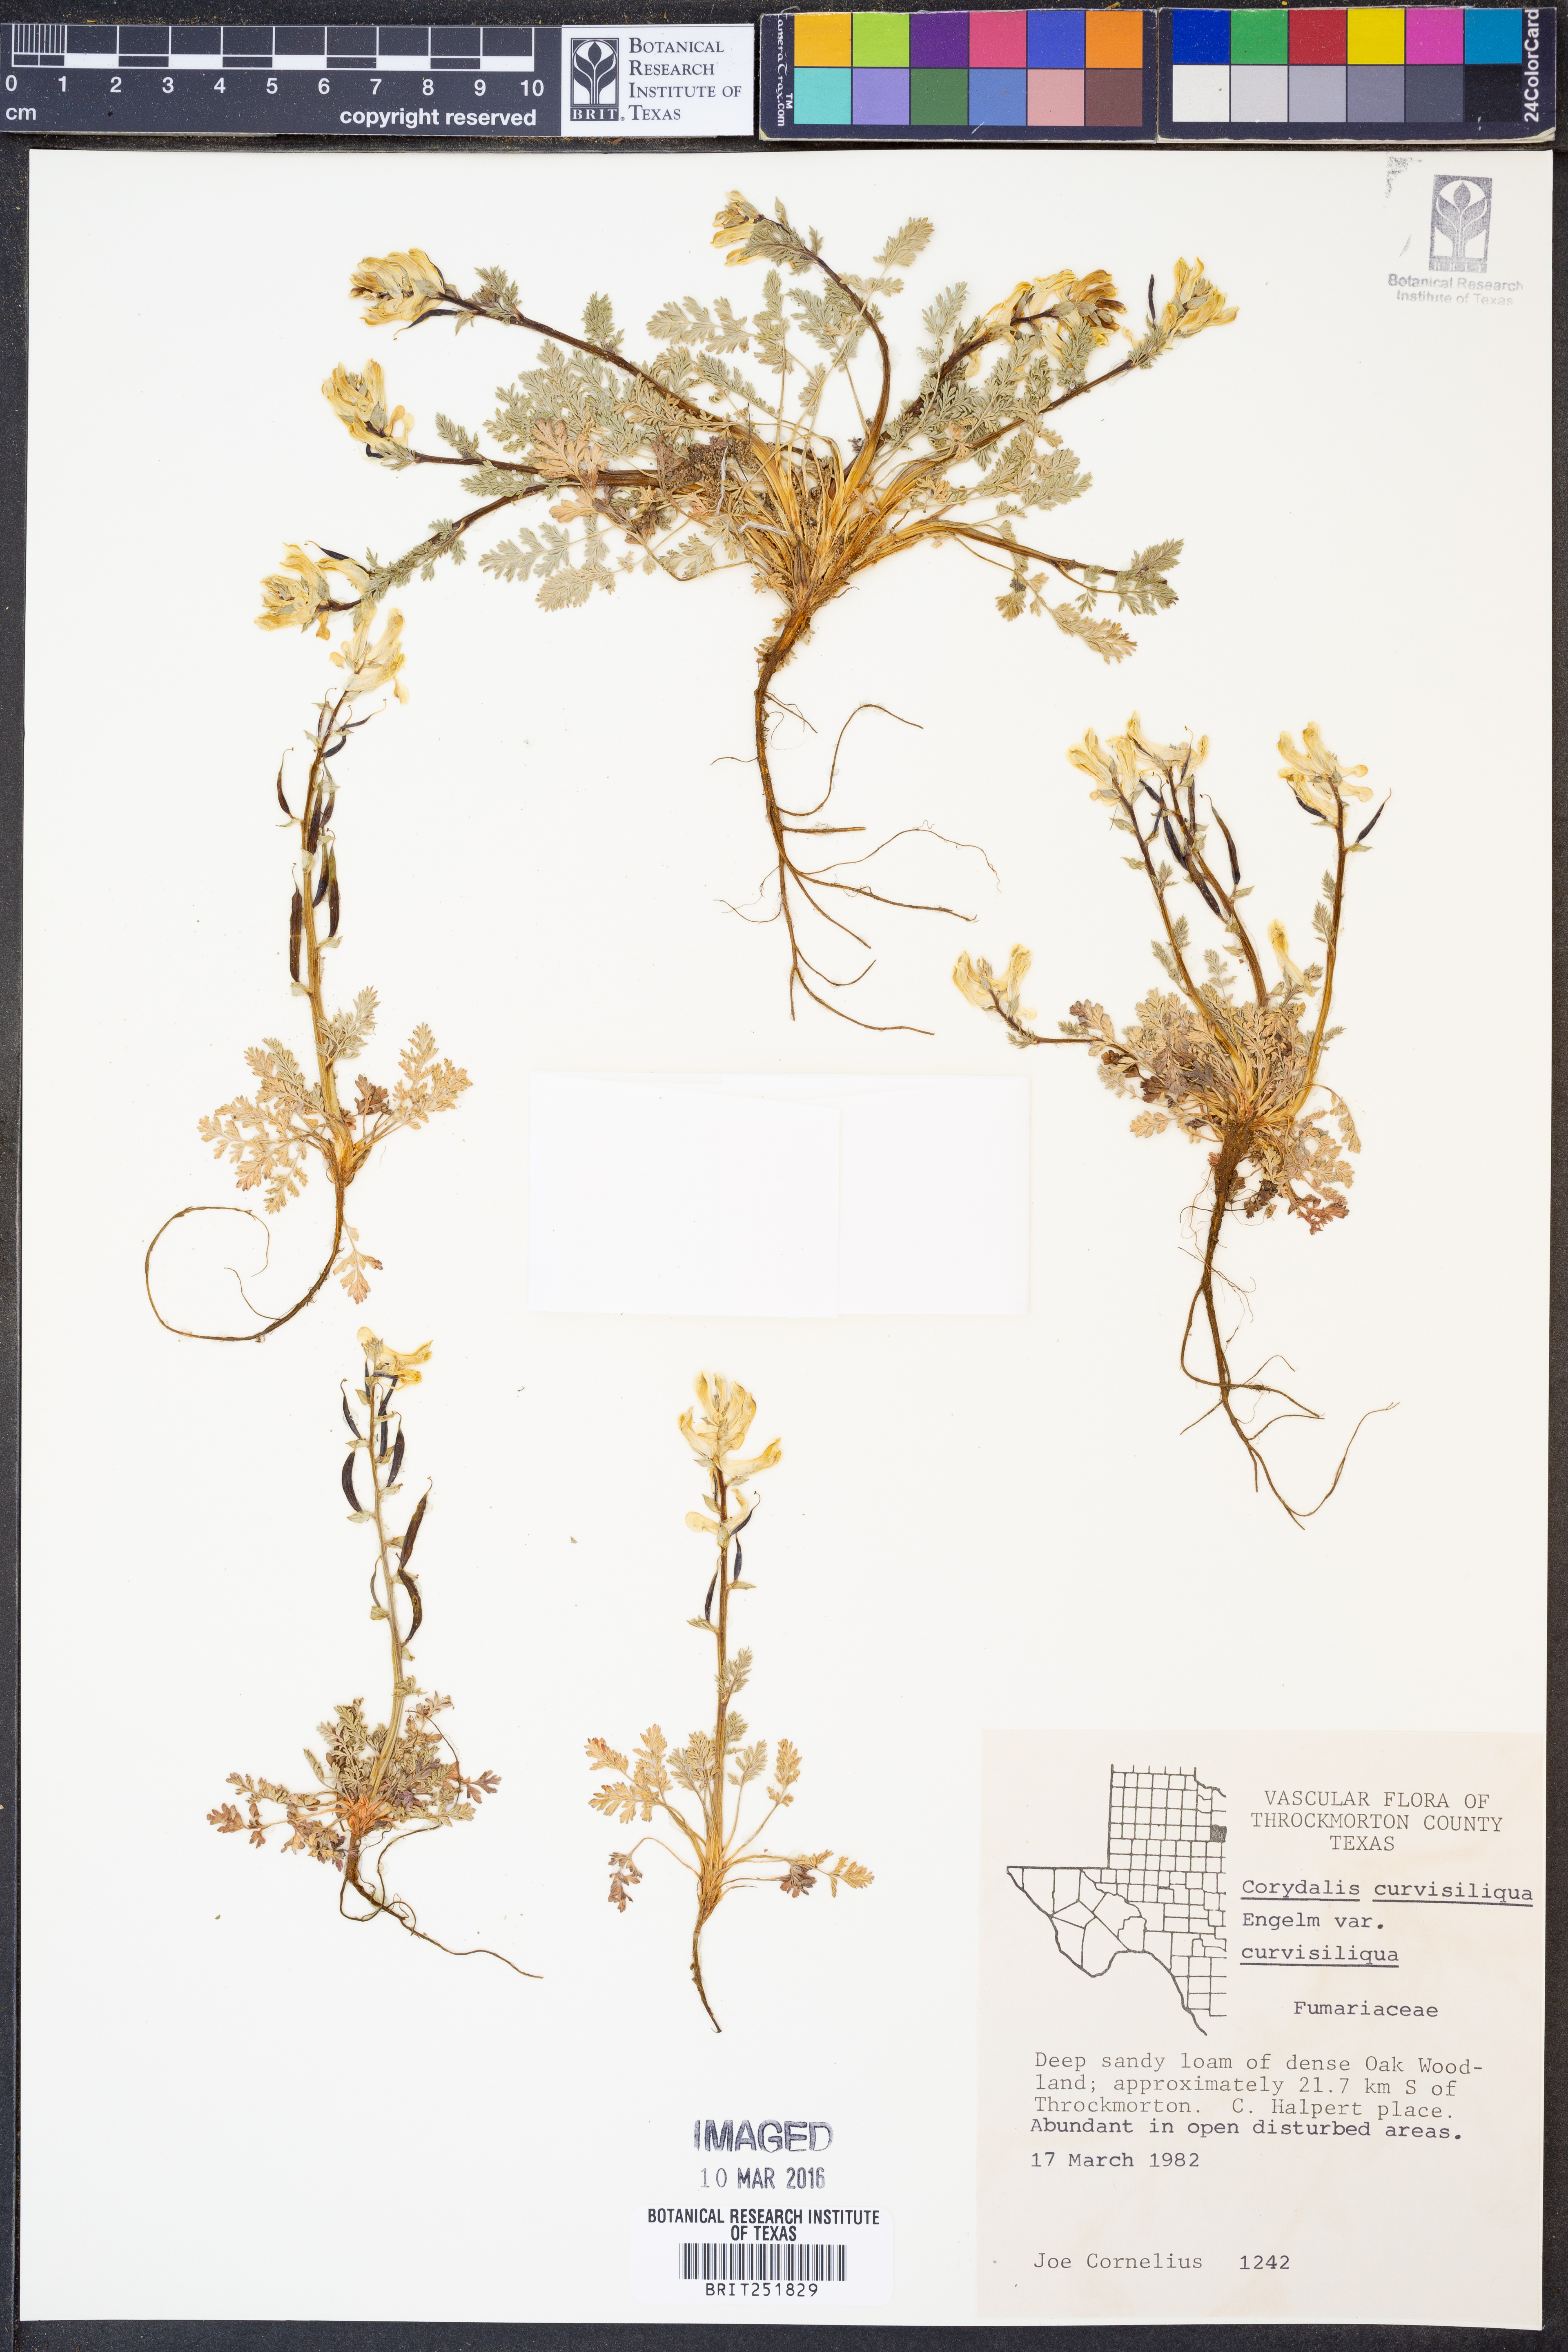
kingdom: Plantae
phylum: Tracheophyta
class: Magnoliopsida
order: Ranunculales
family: Papaveraceae
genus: Corydalis
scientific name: Corydalis curvisiliqua
